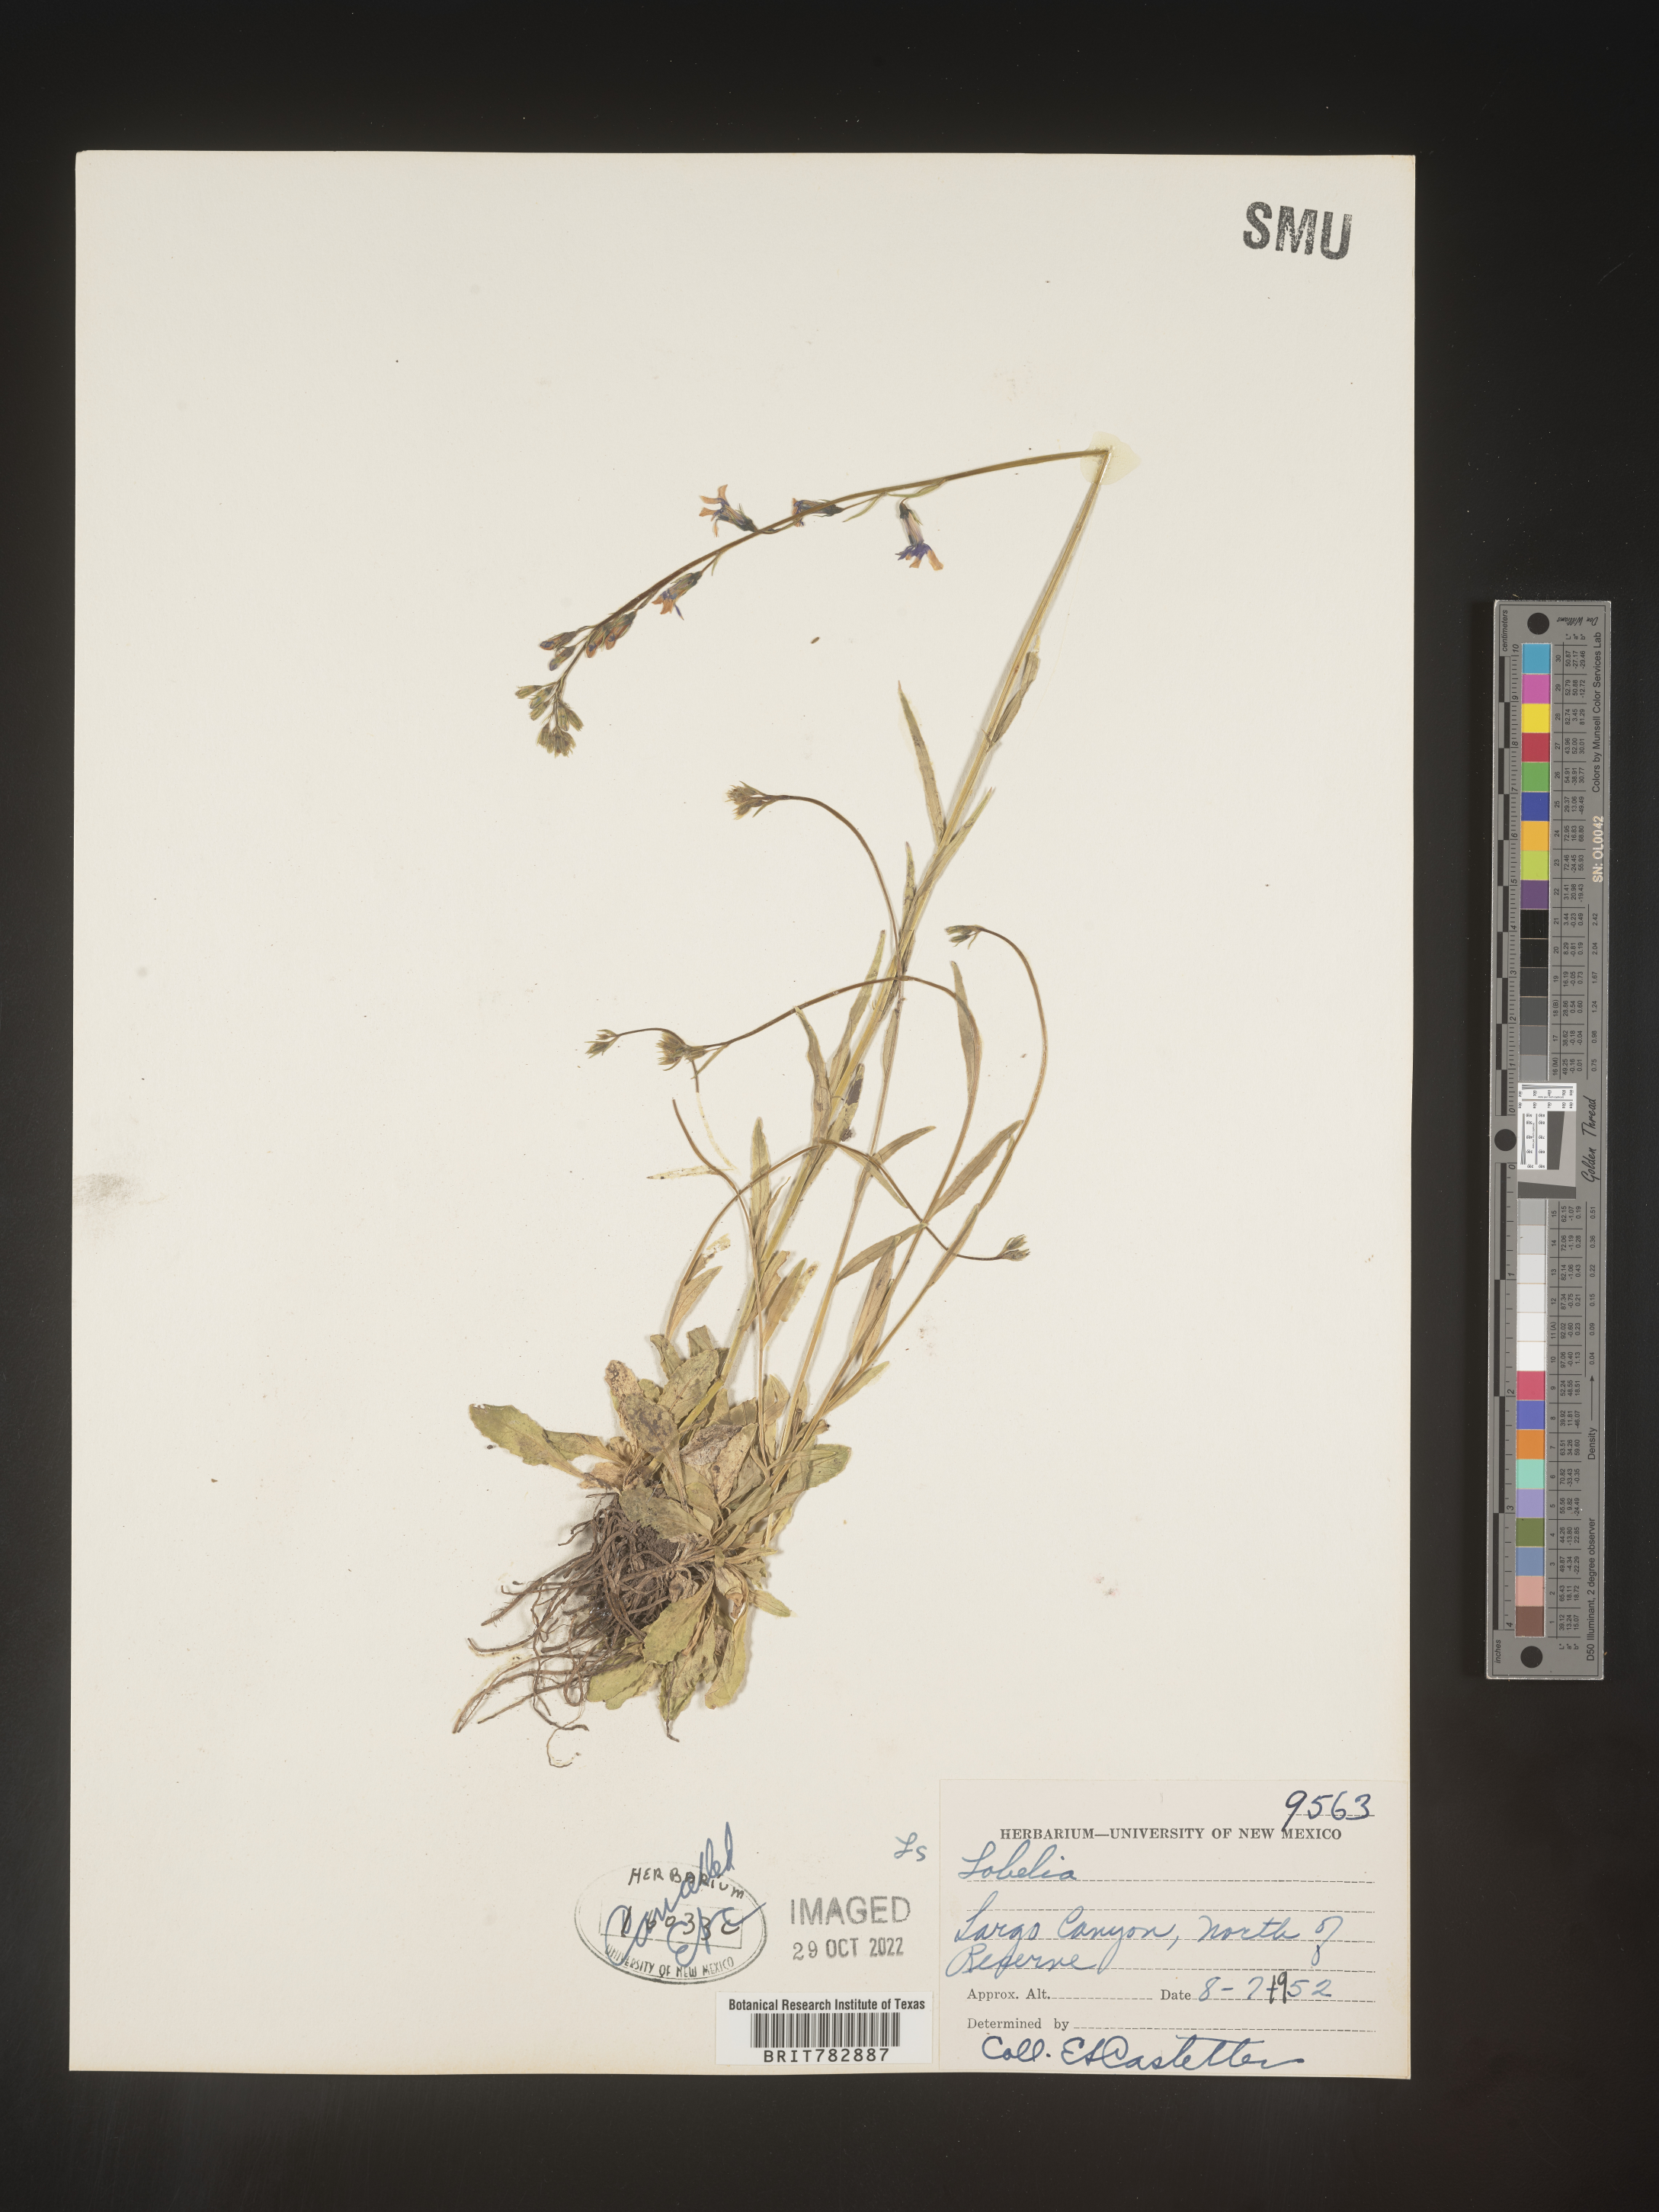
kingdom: Plantae
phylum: Tracheophyta
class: Magnoliopsida
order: Asterales
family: Campanulaceae
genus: Lobelia
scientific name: Lobelia
